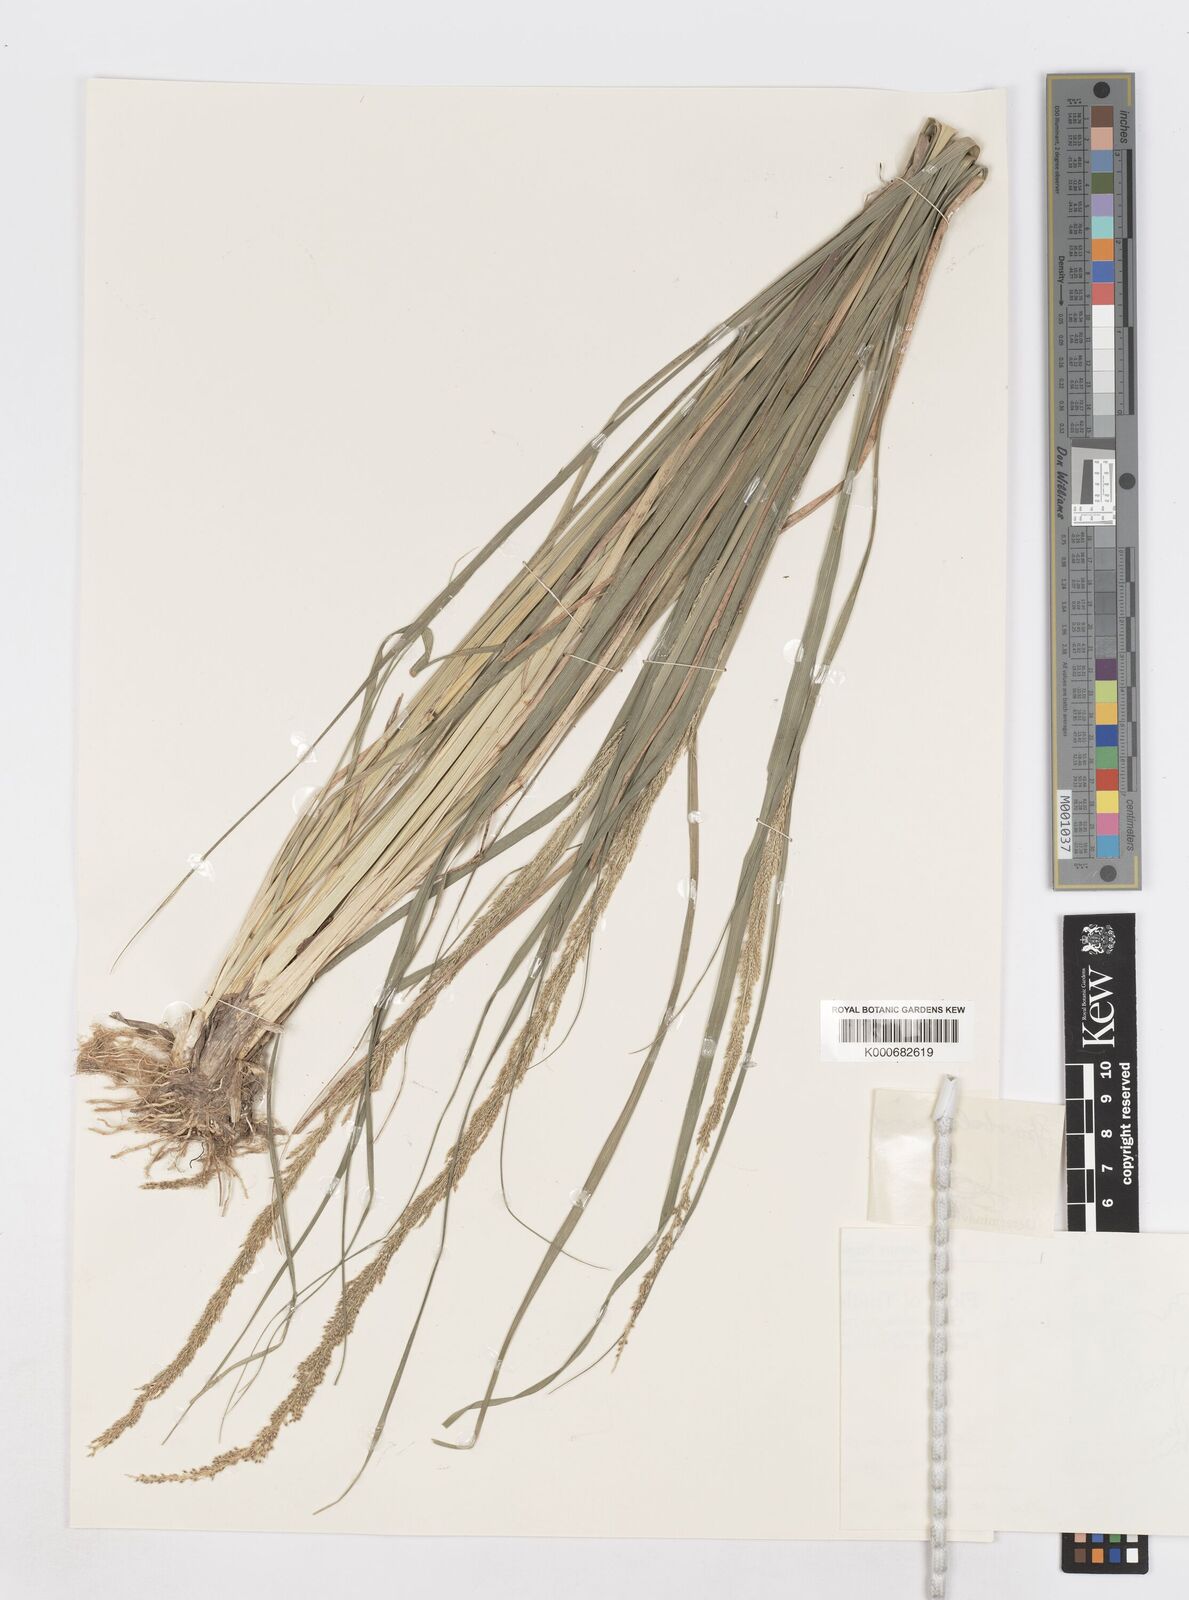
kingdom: Plantae
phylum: Tracheophyta
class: Liliopsida
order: Poales
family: Poaceae
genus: Sporobolus
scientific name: Sporobolus fertilis
